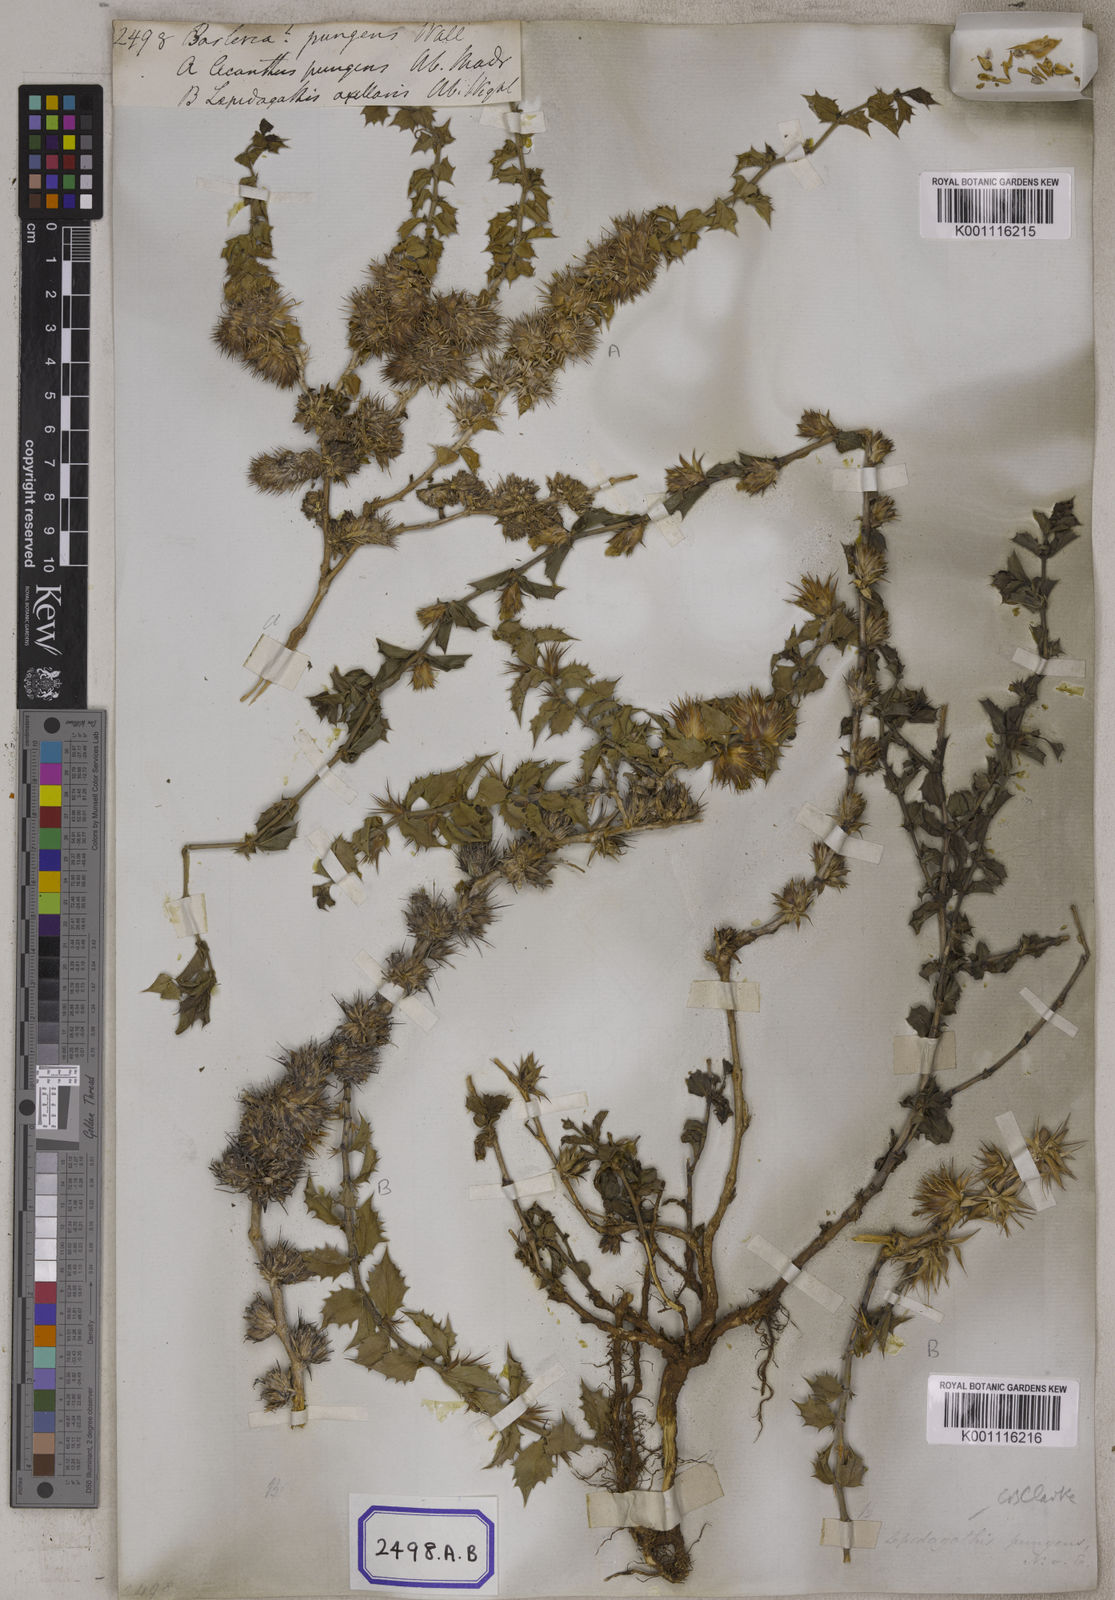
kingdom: Plantae
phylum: Tracheophyta
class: Magnoliopsida
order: Lamiales
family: Acanthaceae
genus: Barleria
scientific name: Barleria
